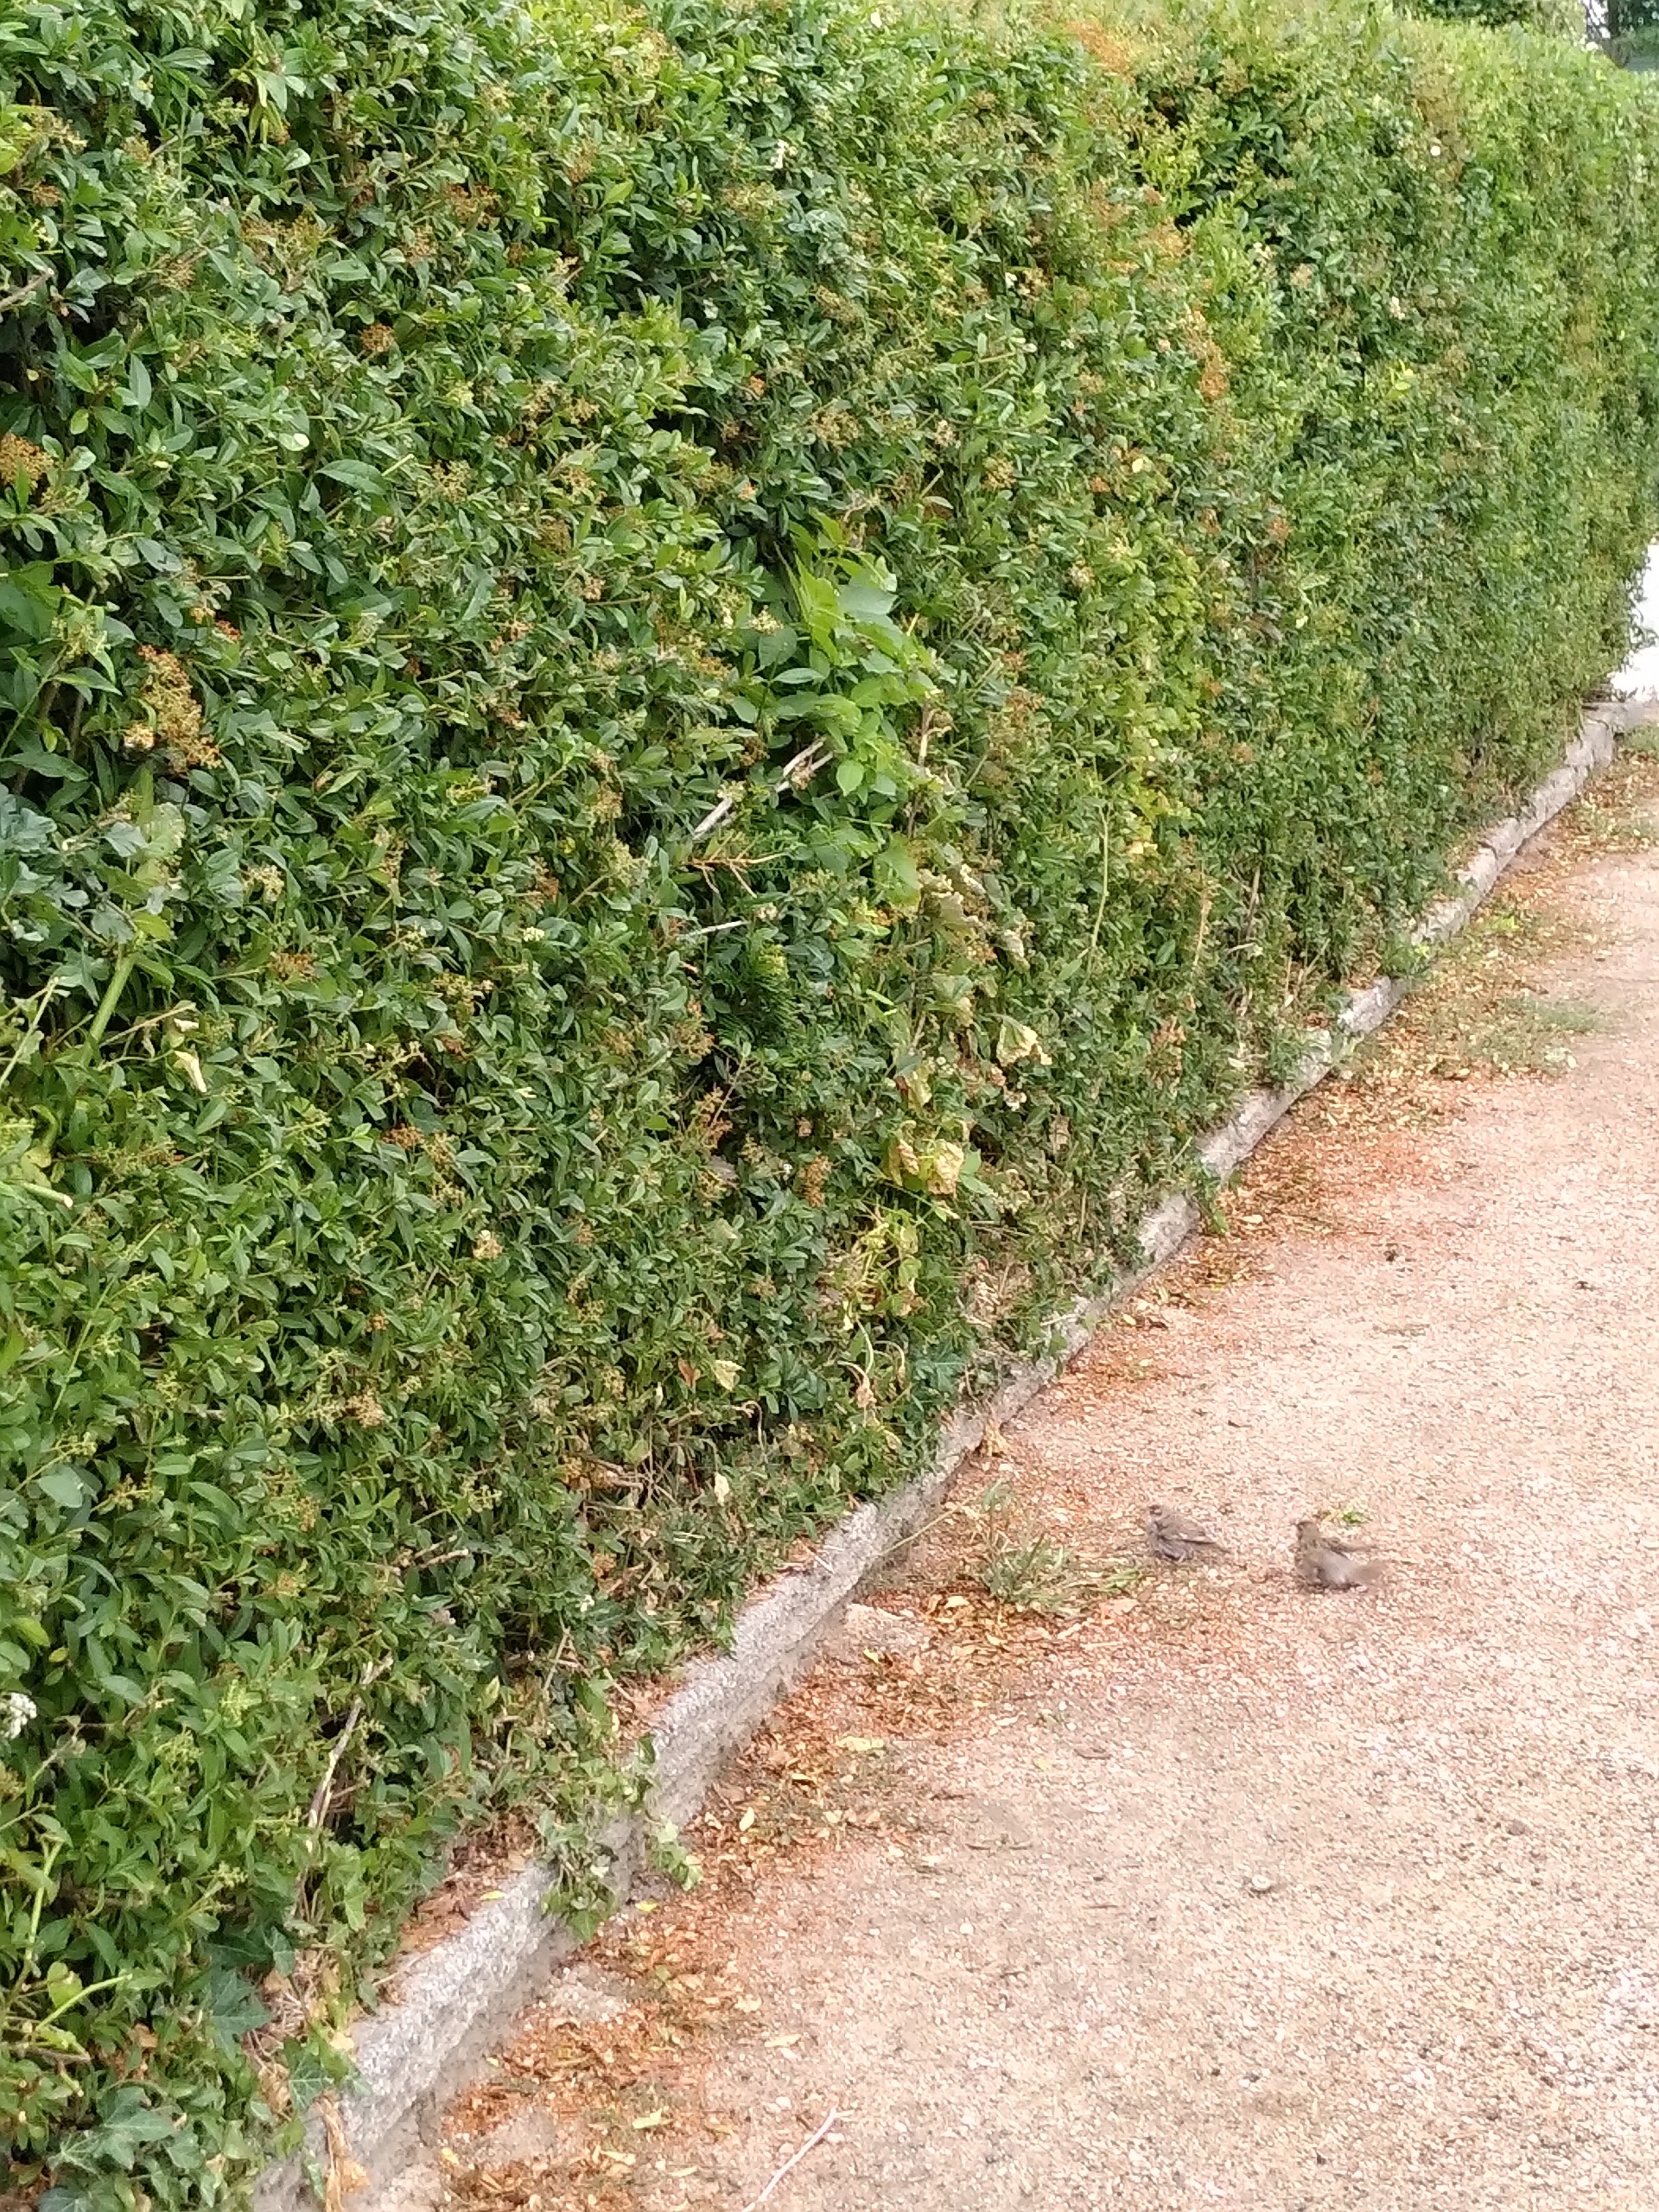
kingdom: Animalia
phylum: Chordata
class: Aves
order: Passeriformes
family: Passeridae
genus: Passer
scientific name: Passer domesticus
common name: Gråspurv
